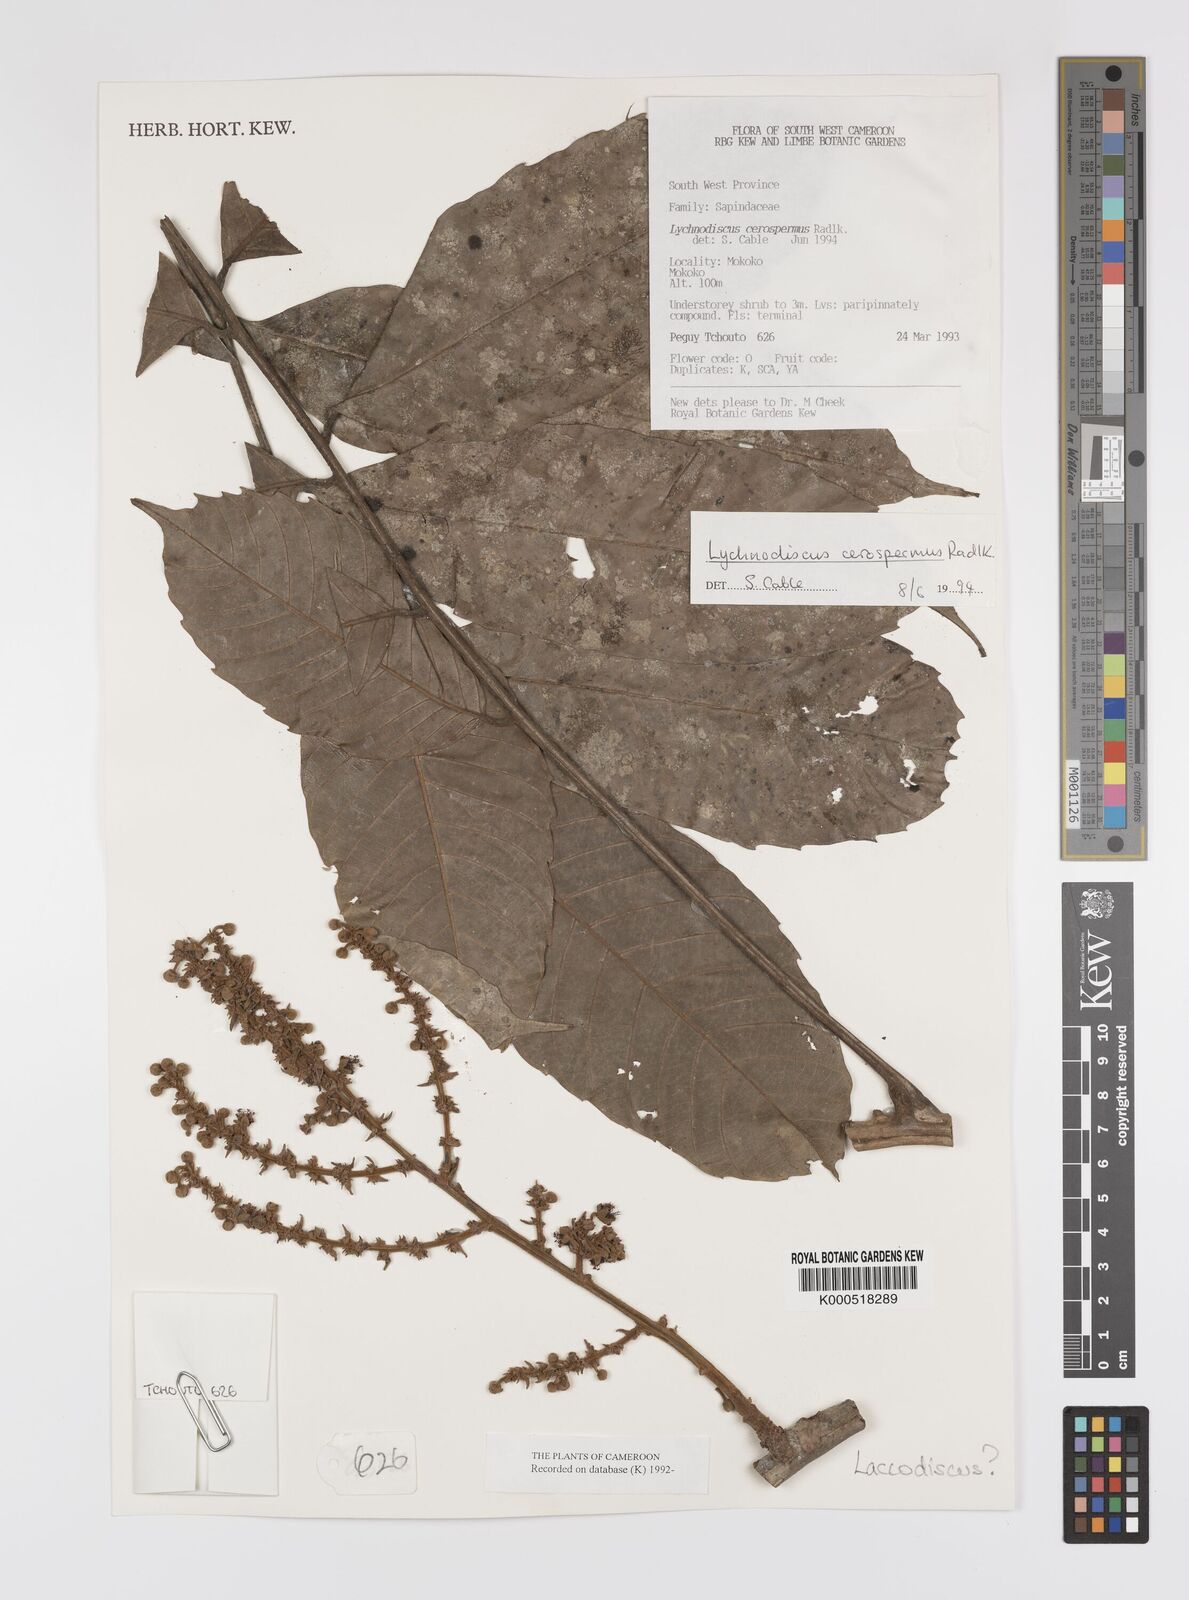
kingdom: Plantae
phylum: Tracheophyta
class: Magnoliopsida
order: Sapindales
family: Sapindaceae
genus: Lychnodiscus
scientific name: Lychnodiscus cerospermus
